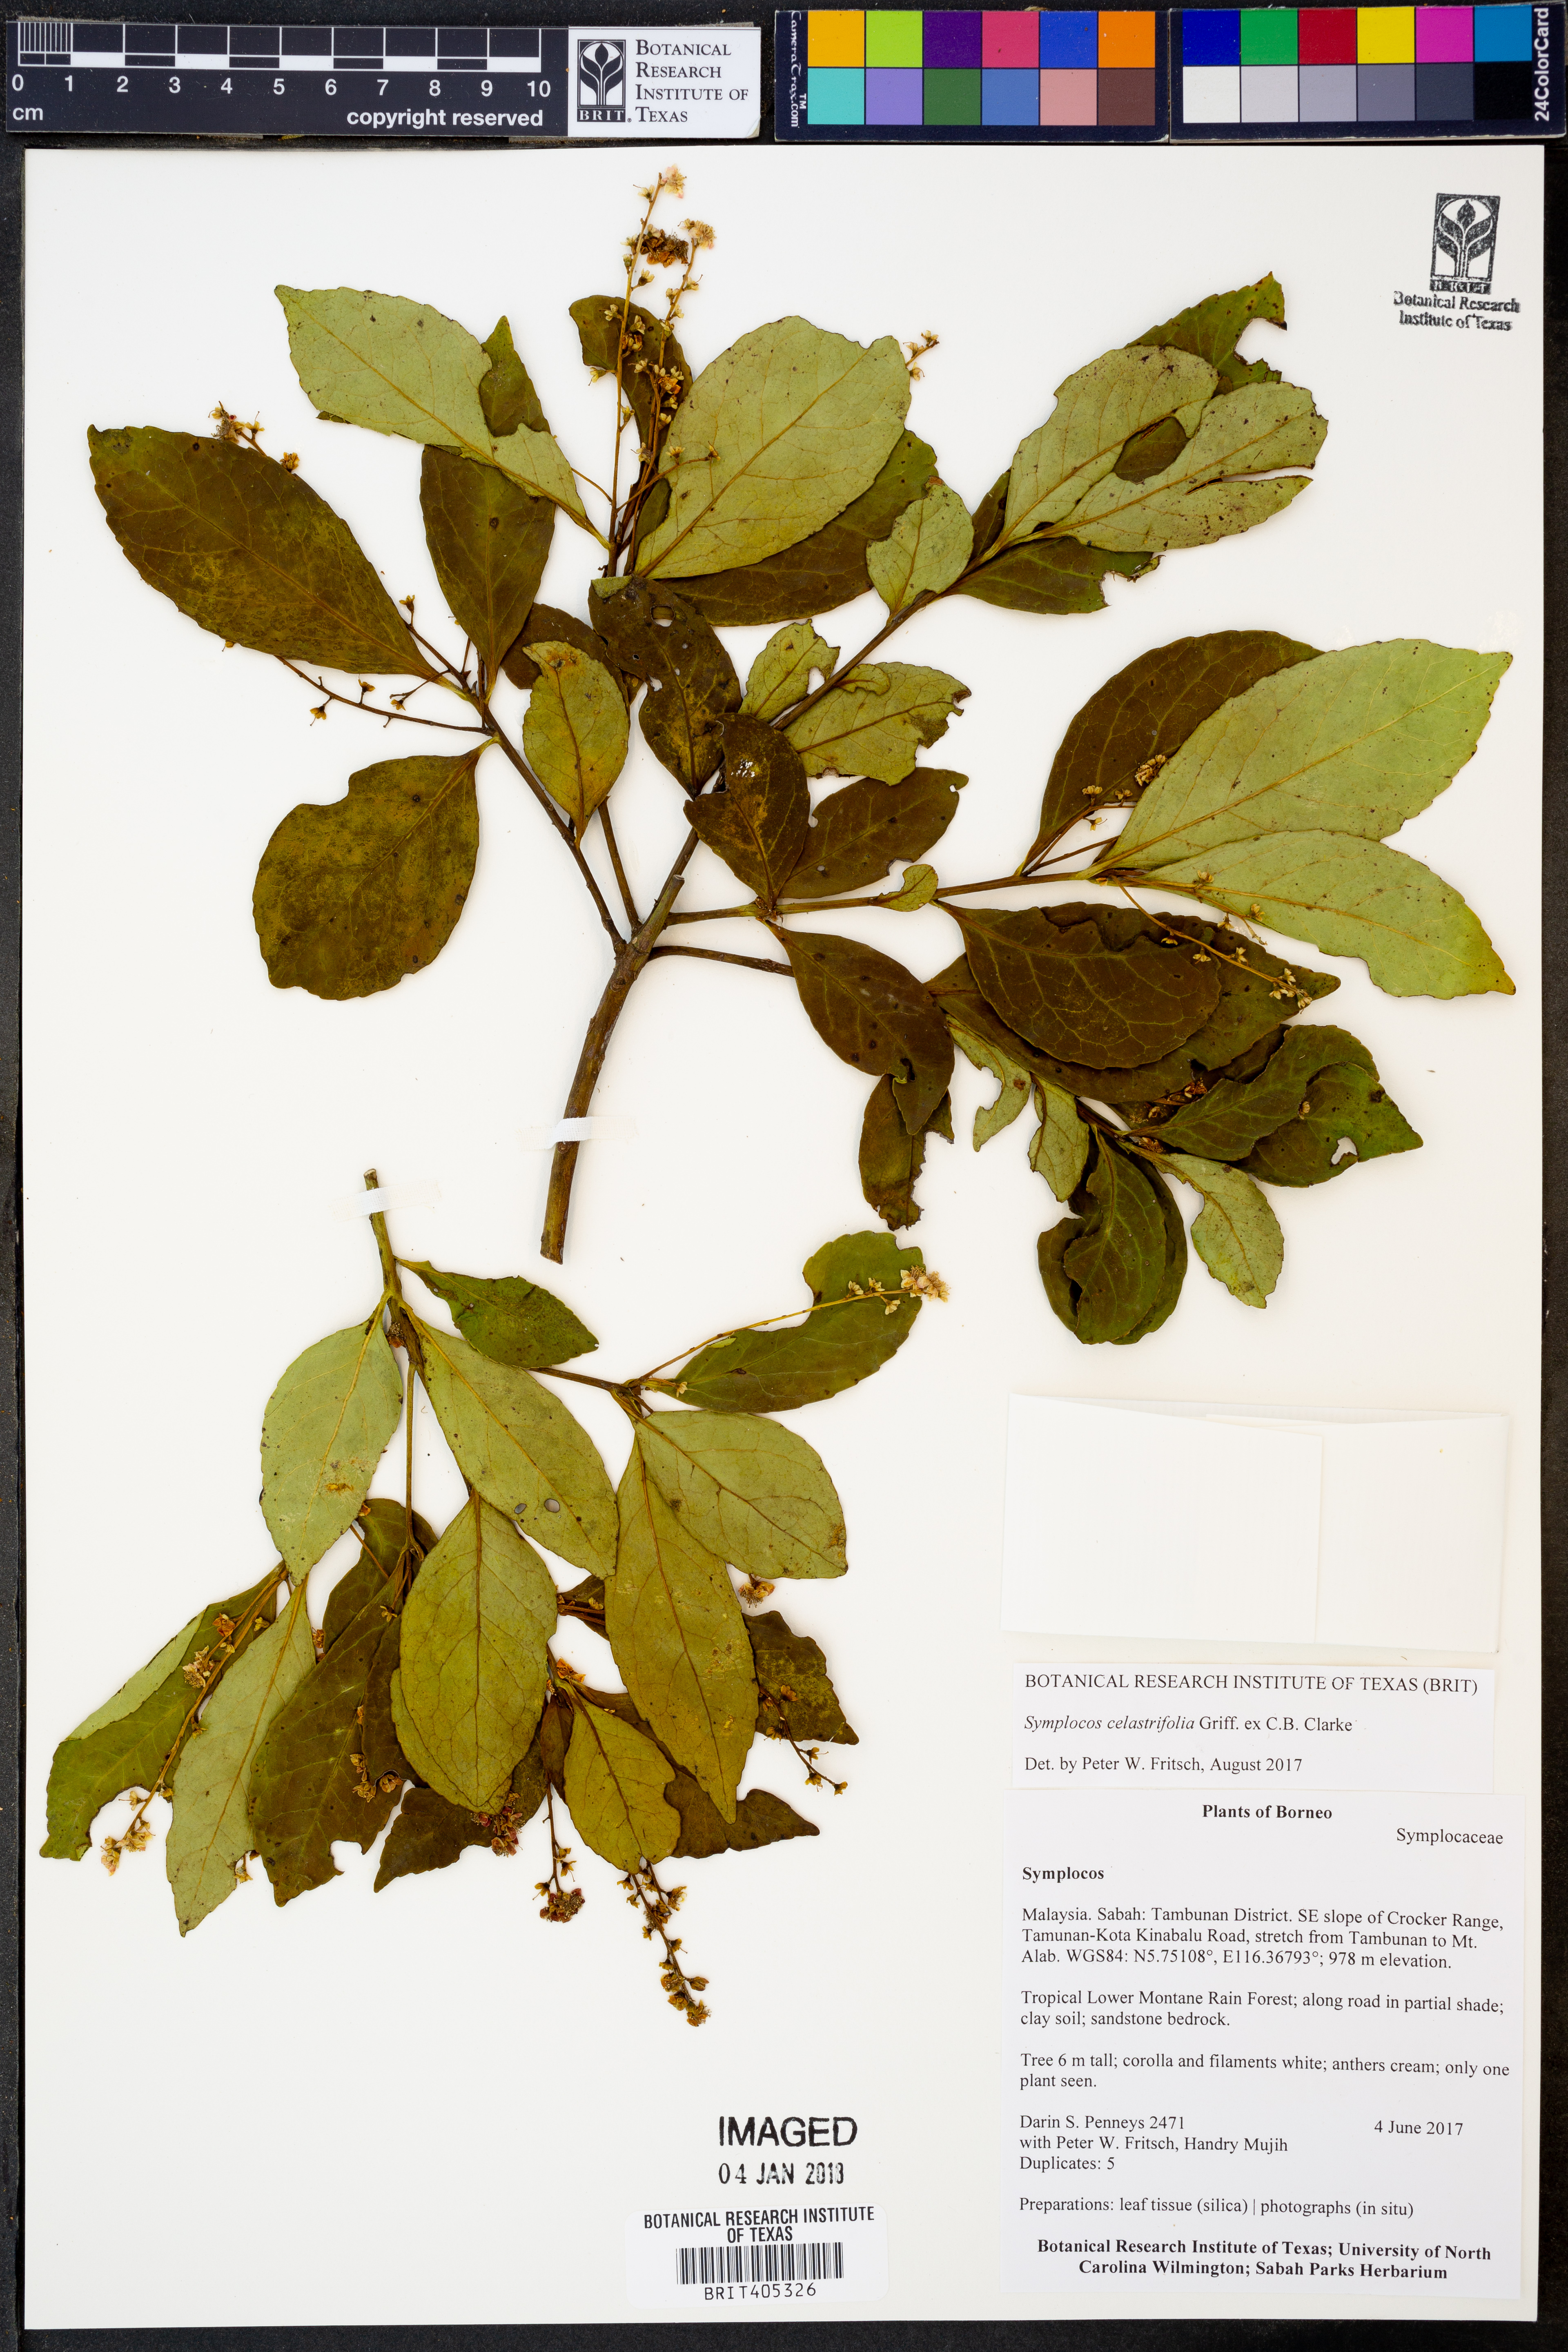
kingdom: Plantae
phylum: Tracheophyta
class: Magnoliopsida
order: Ericales
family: Symplocaceae
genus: Symplocos
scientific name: Symplocos celastrifolia
